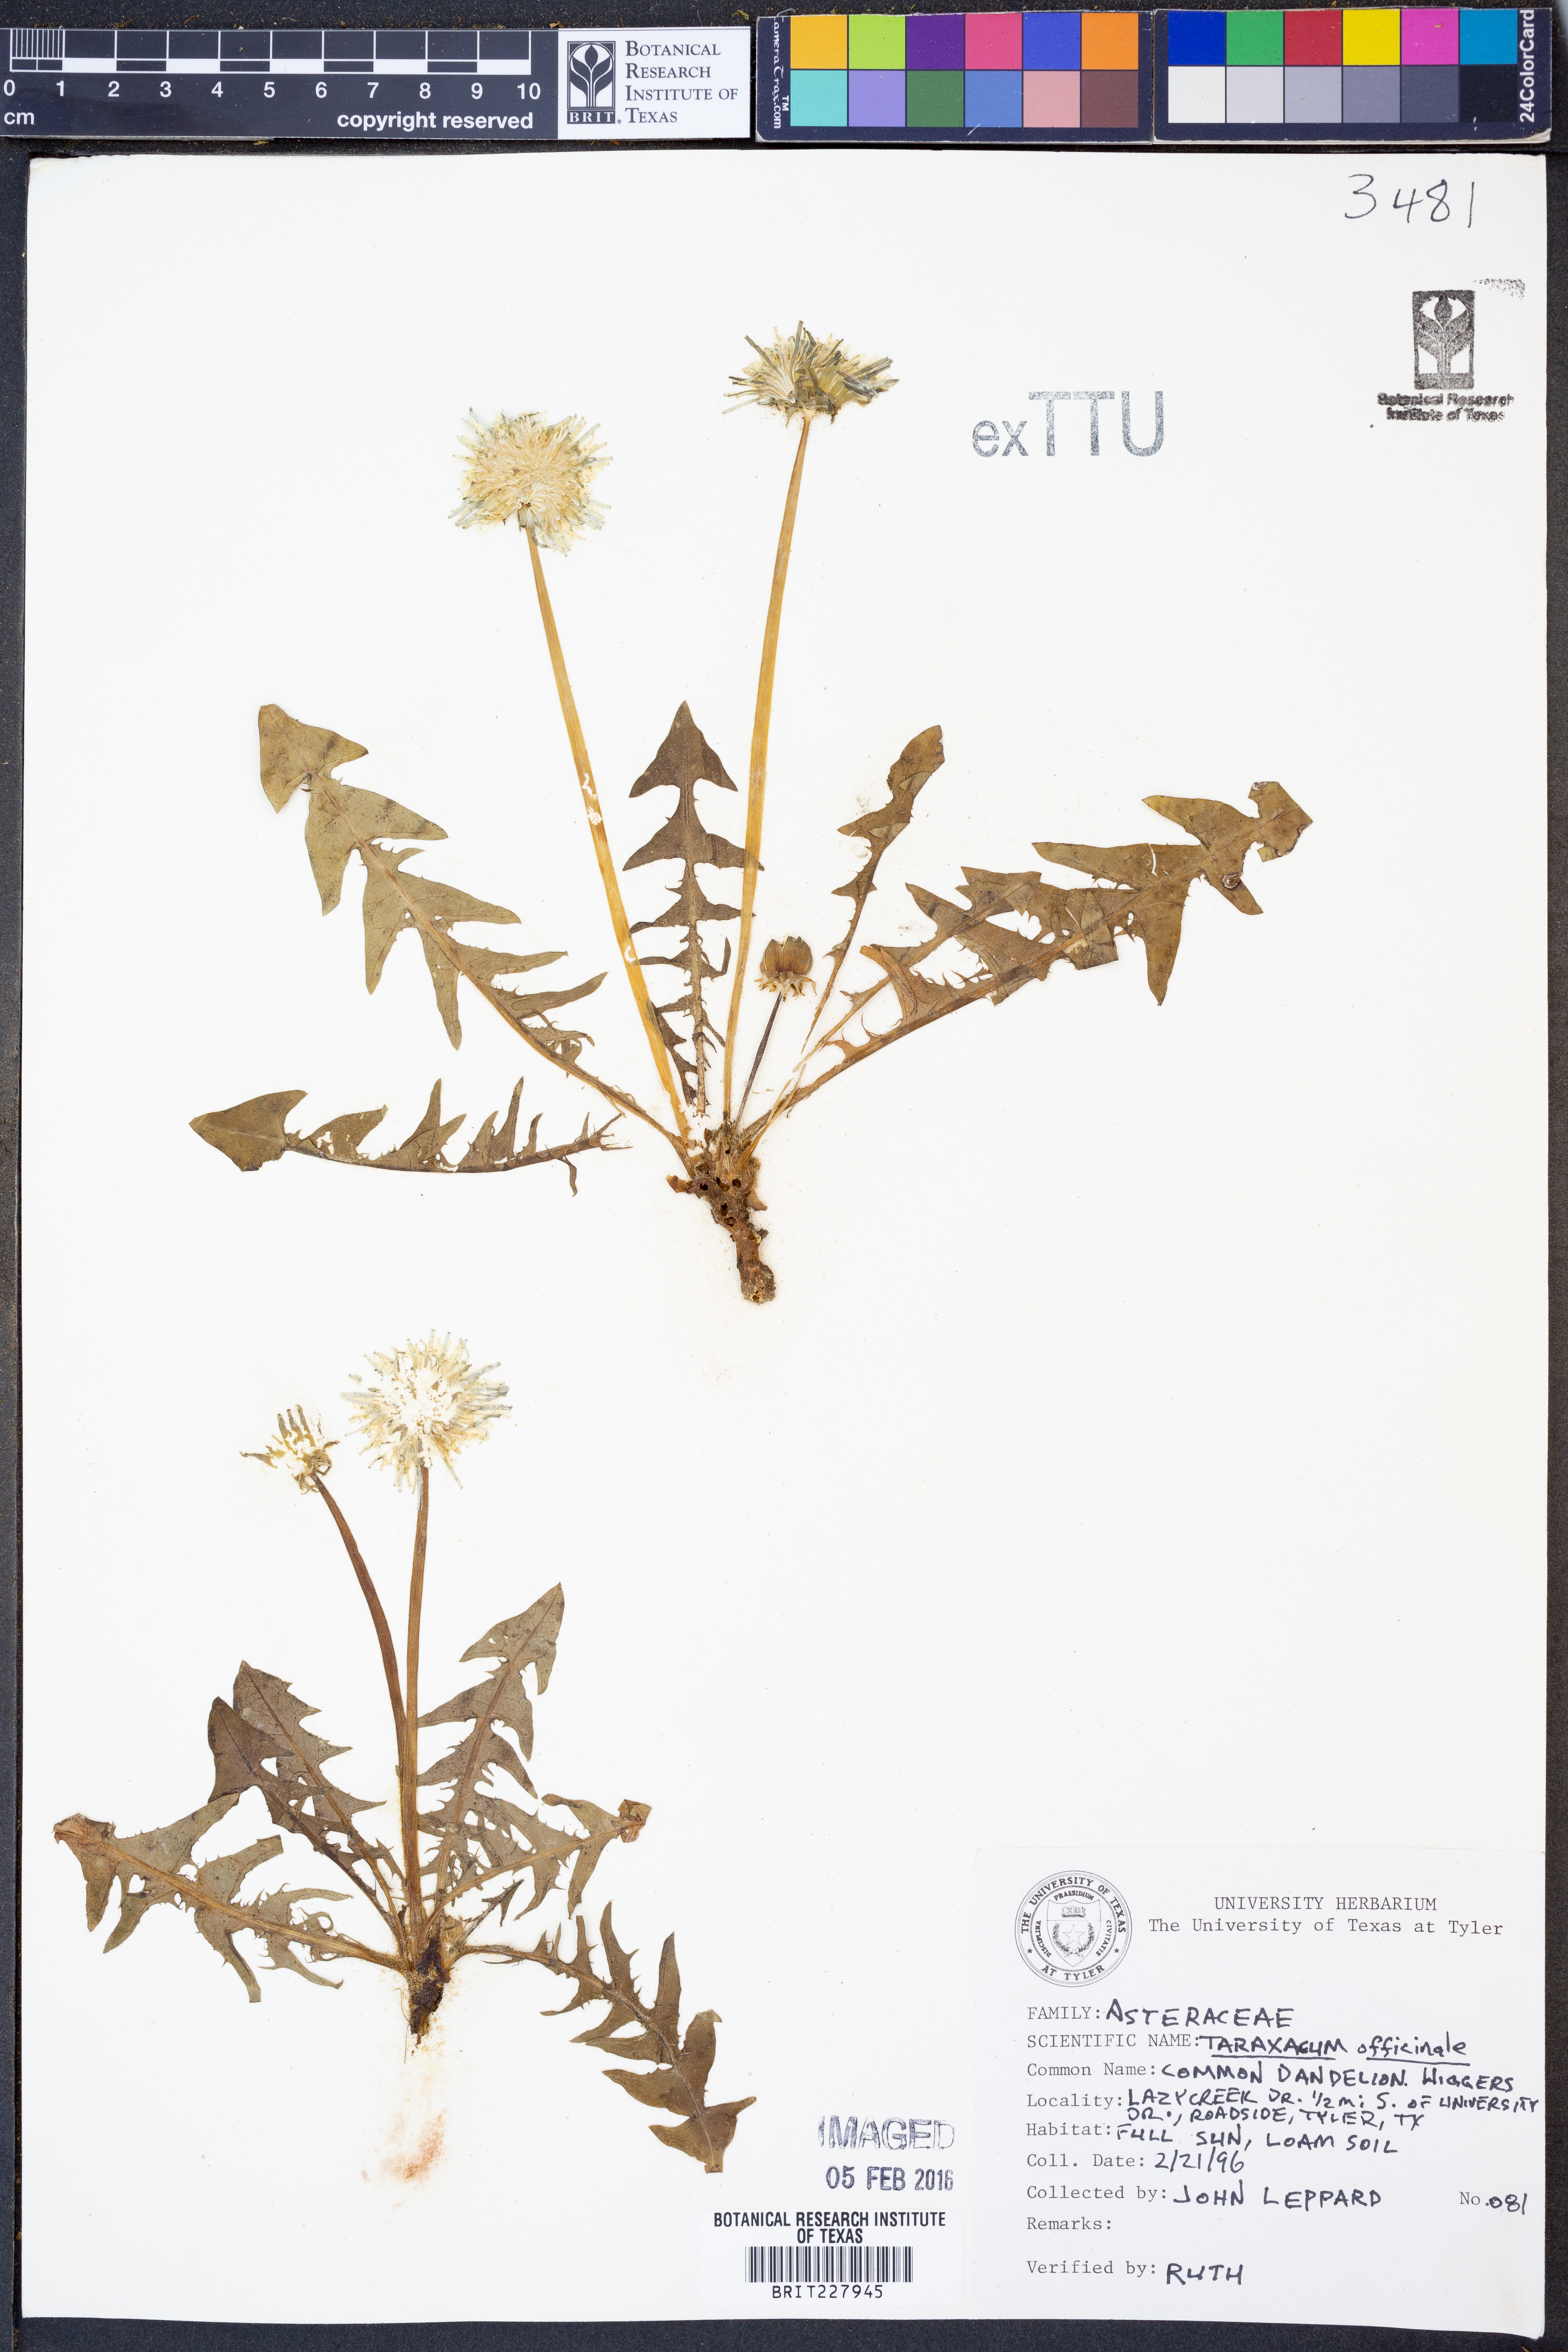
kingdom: Plantae
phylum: Tracheophyta
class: Magnoliopsida
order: Asterales
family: Asteraceae
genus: Taraxacum
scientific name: Taraxacum officinale
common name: Common dandelion
